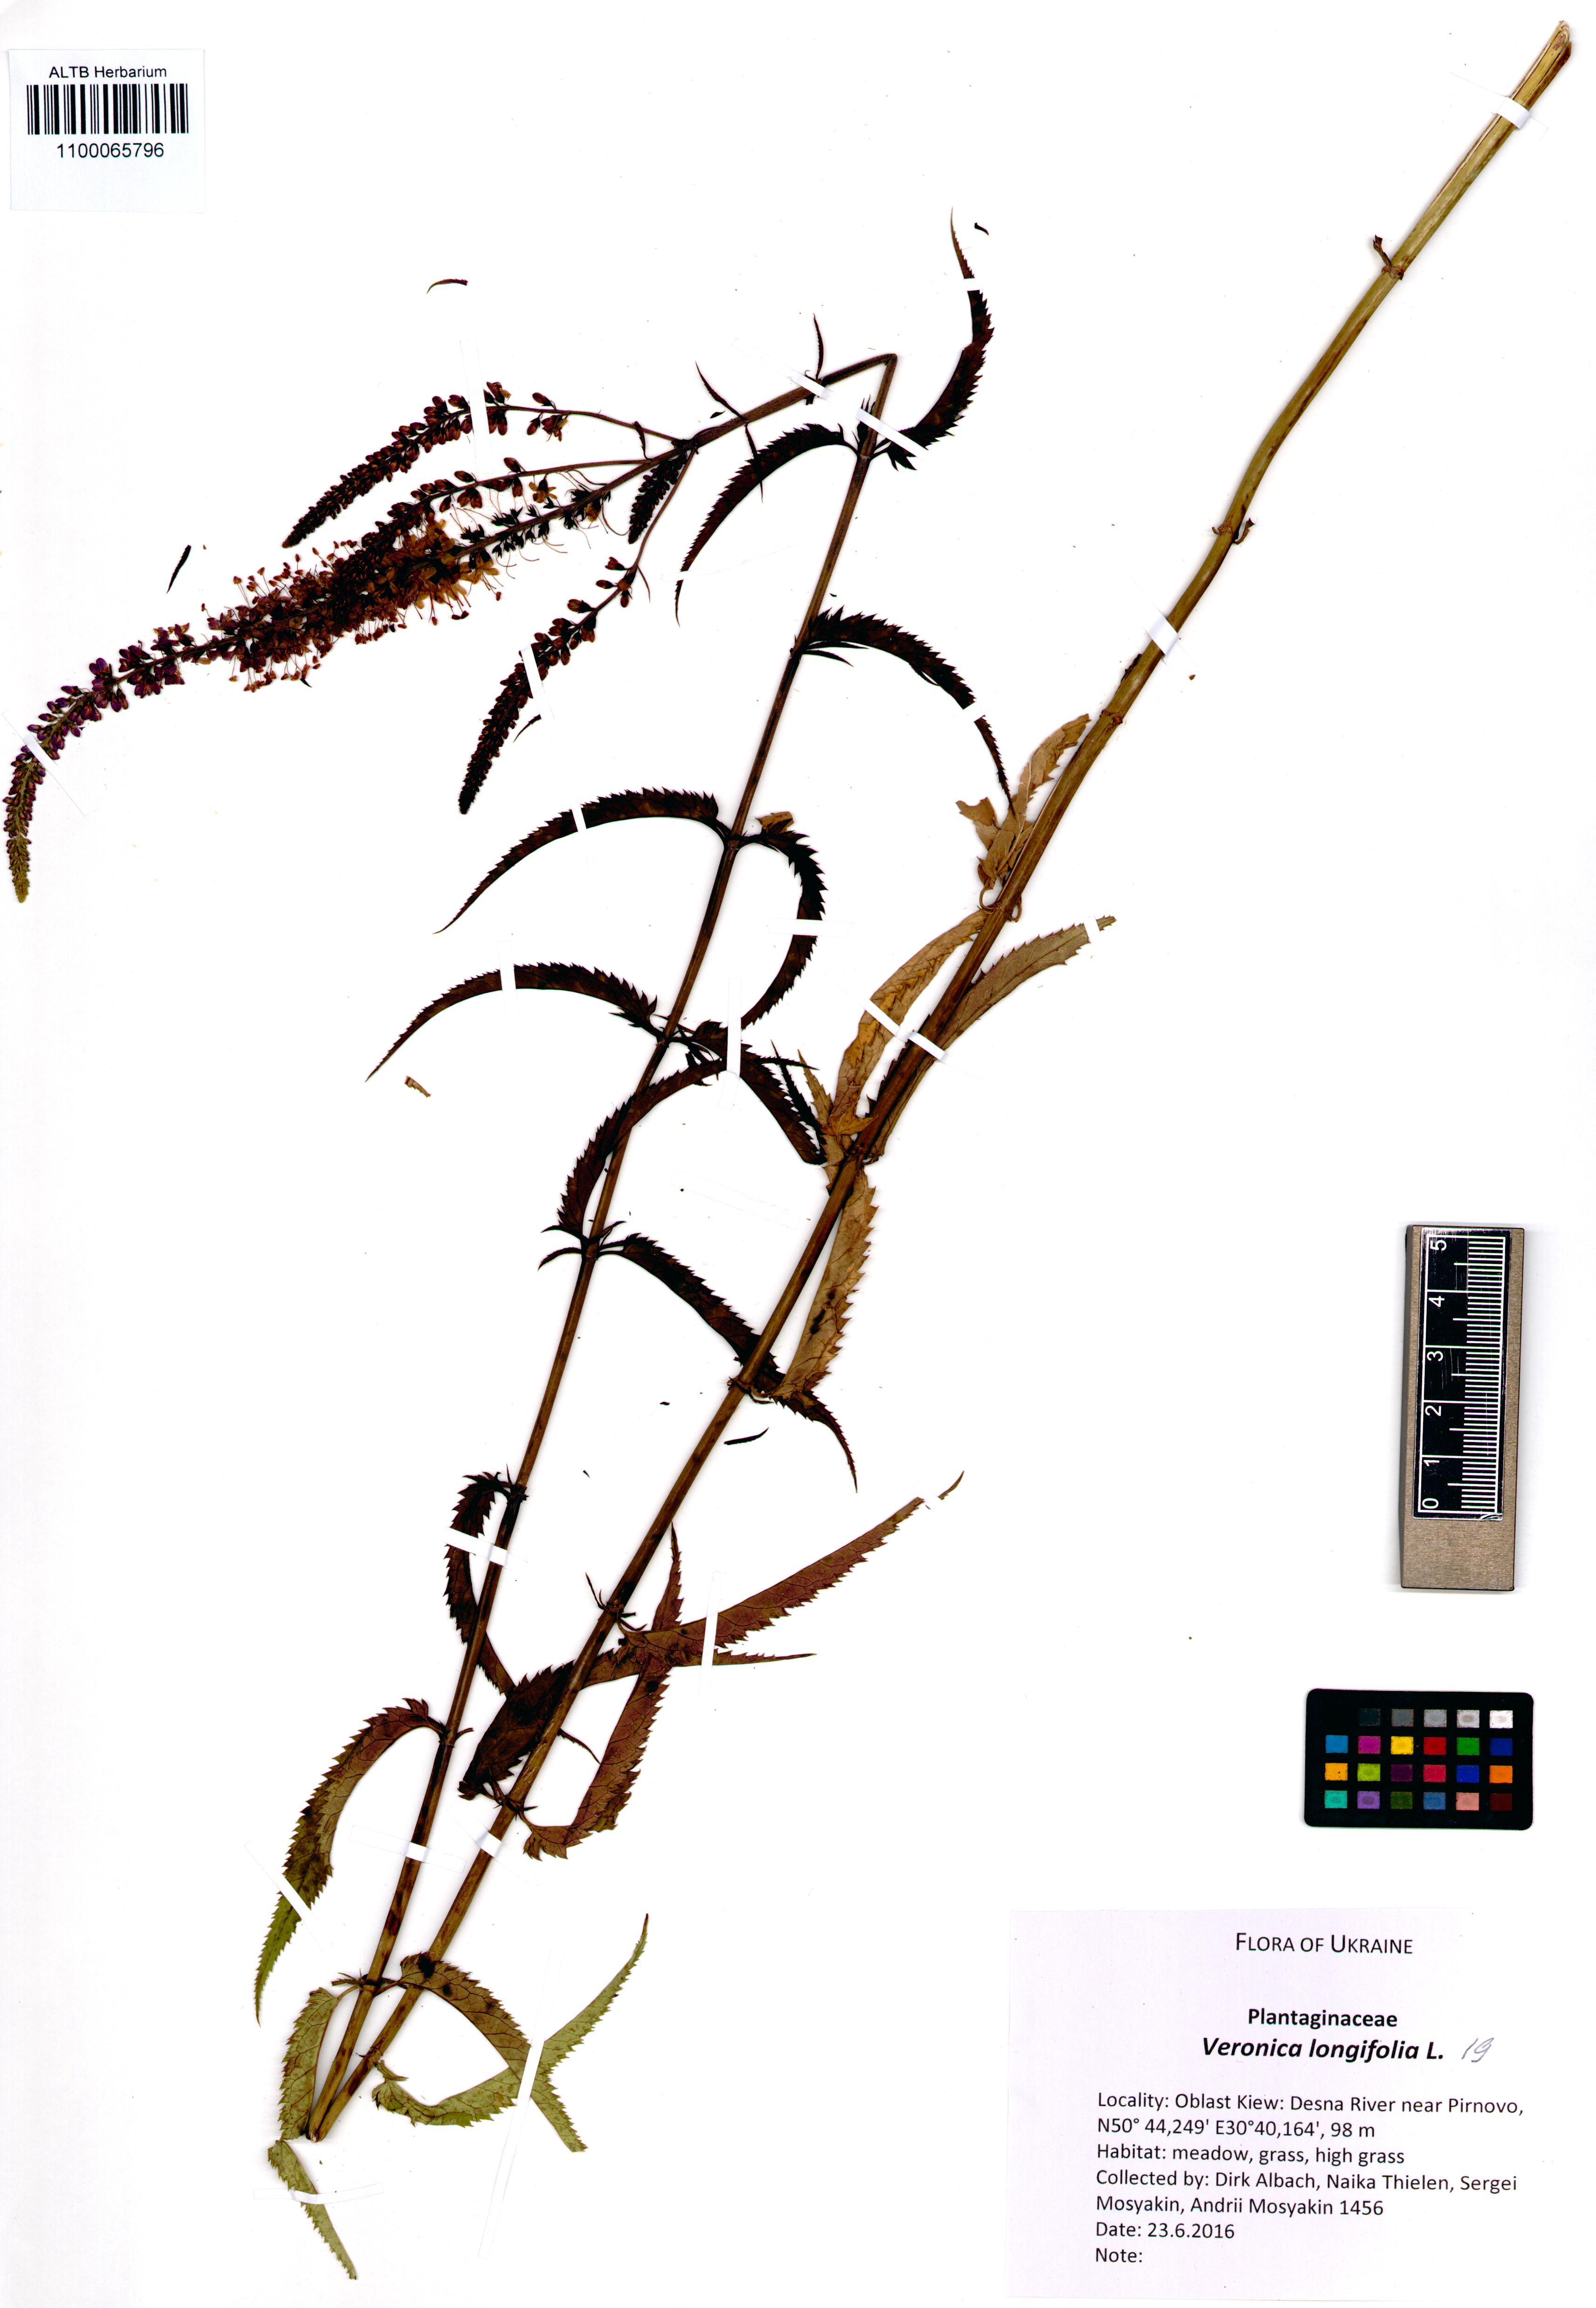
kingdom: Plantae
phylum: Tracheophyta
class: Magnoliopsida
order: Lamiales
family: Plantaginaceae
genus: Veronica
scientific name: Veronica longifolia
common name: Garden speedwell
